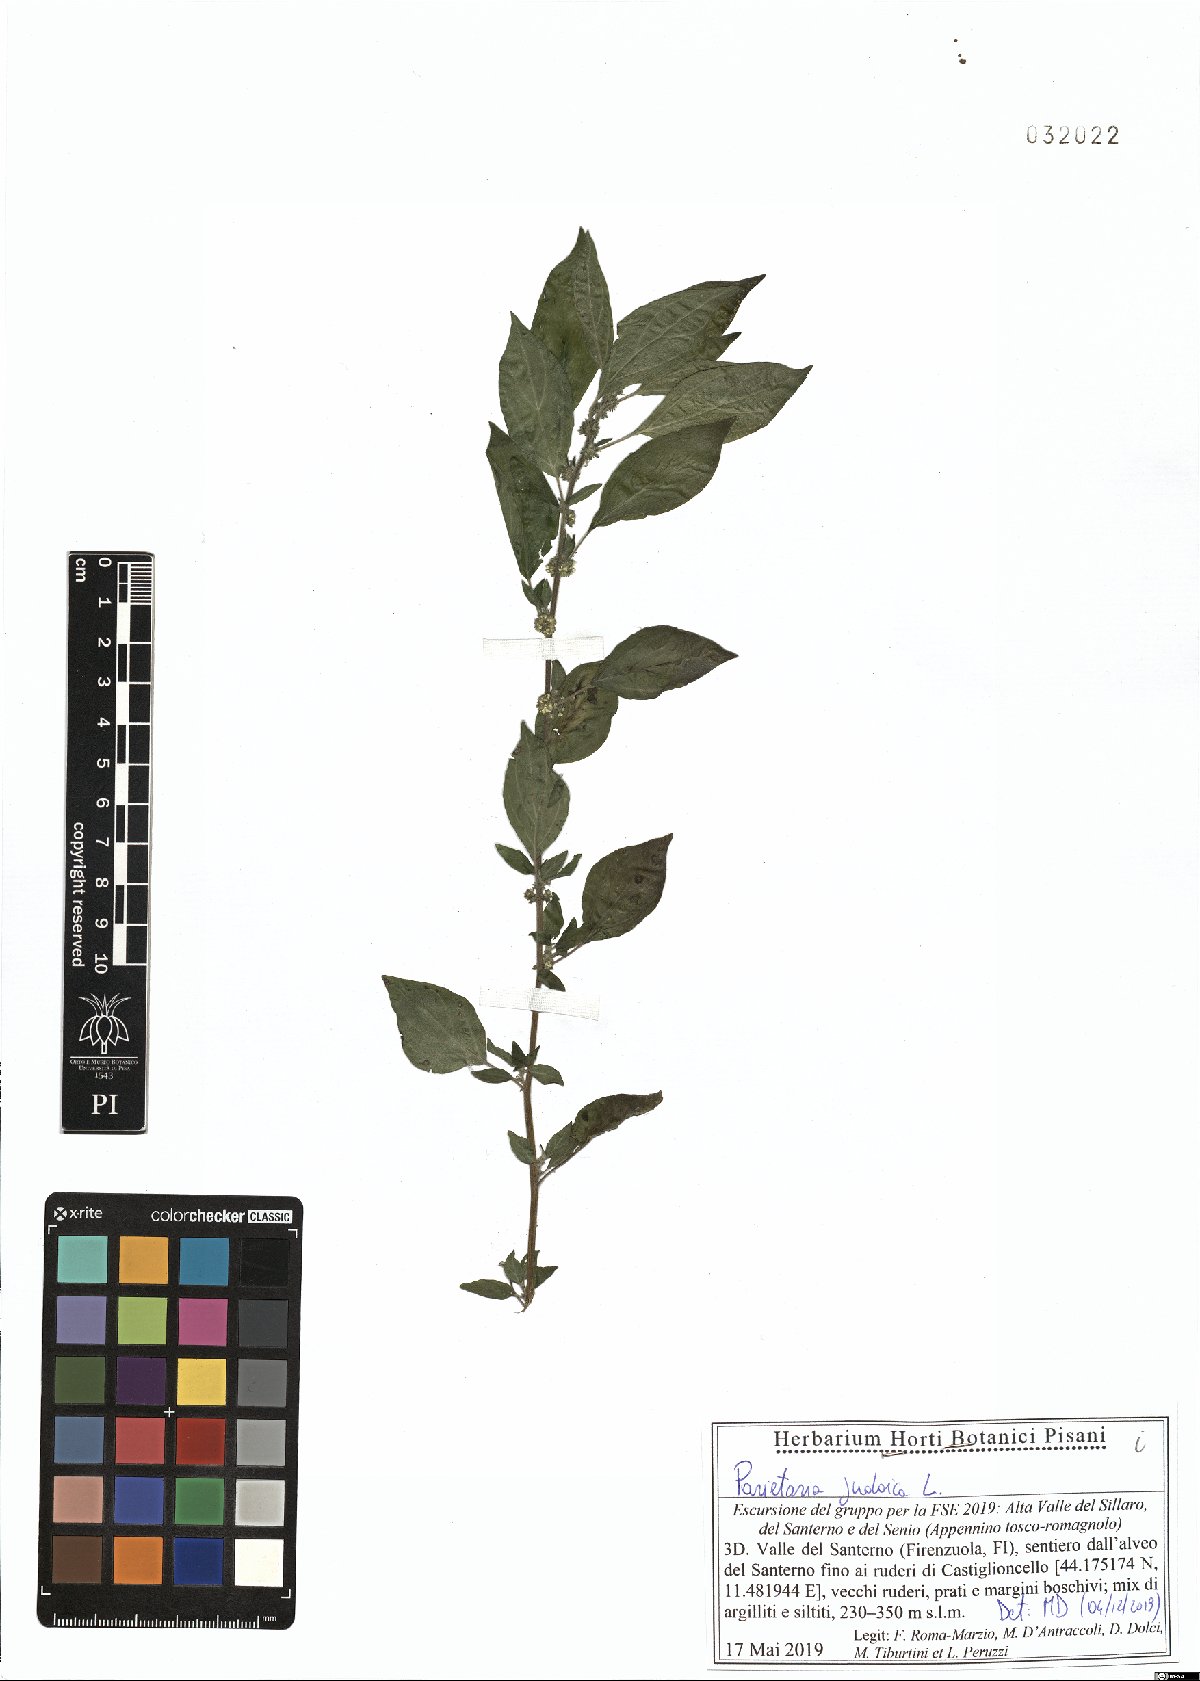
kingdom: Plantae
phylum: Tracheophyta
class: Magnoliopsida
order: Rosales
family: Urticaceae
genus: Parietaria
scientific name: Parietaria judaica
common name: Pellitory-of-the-wall
